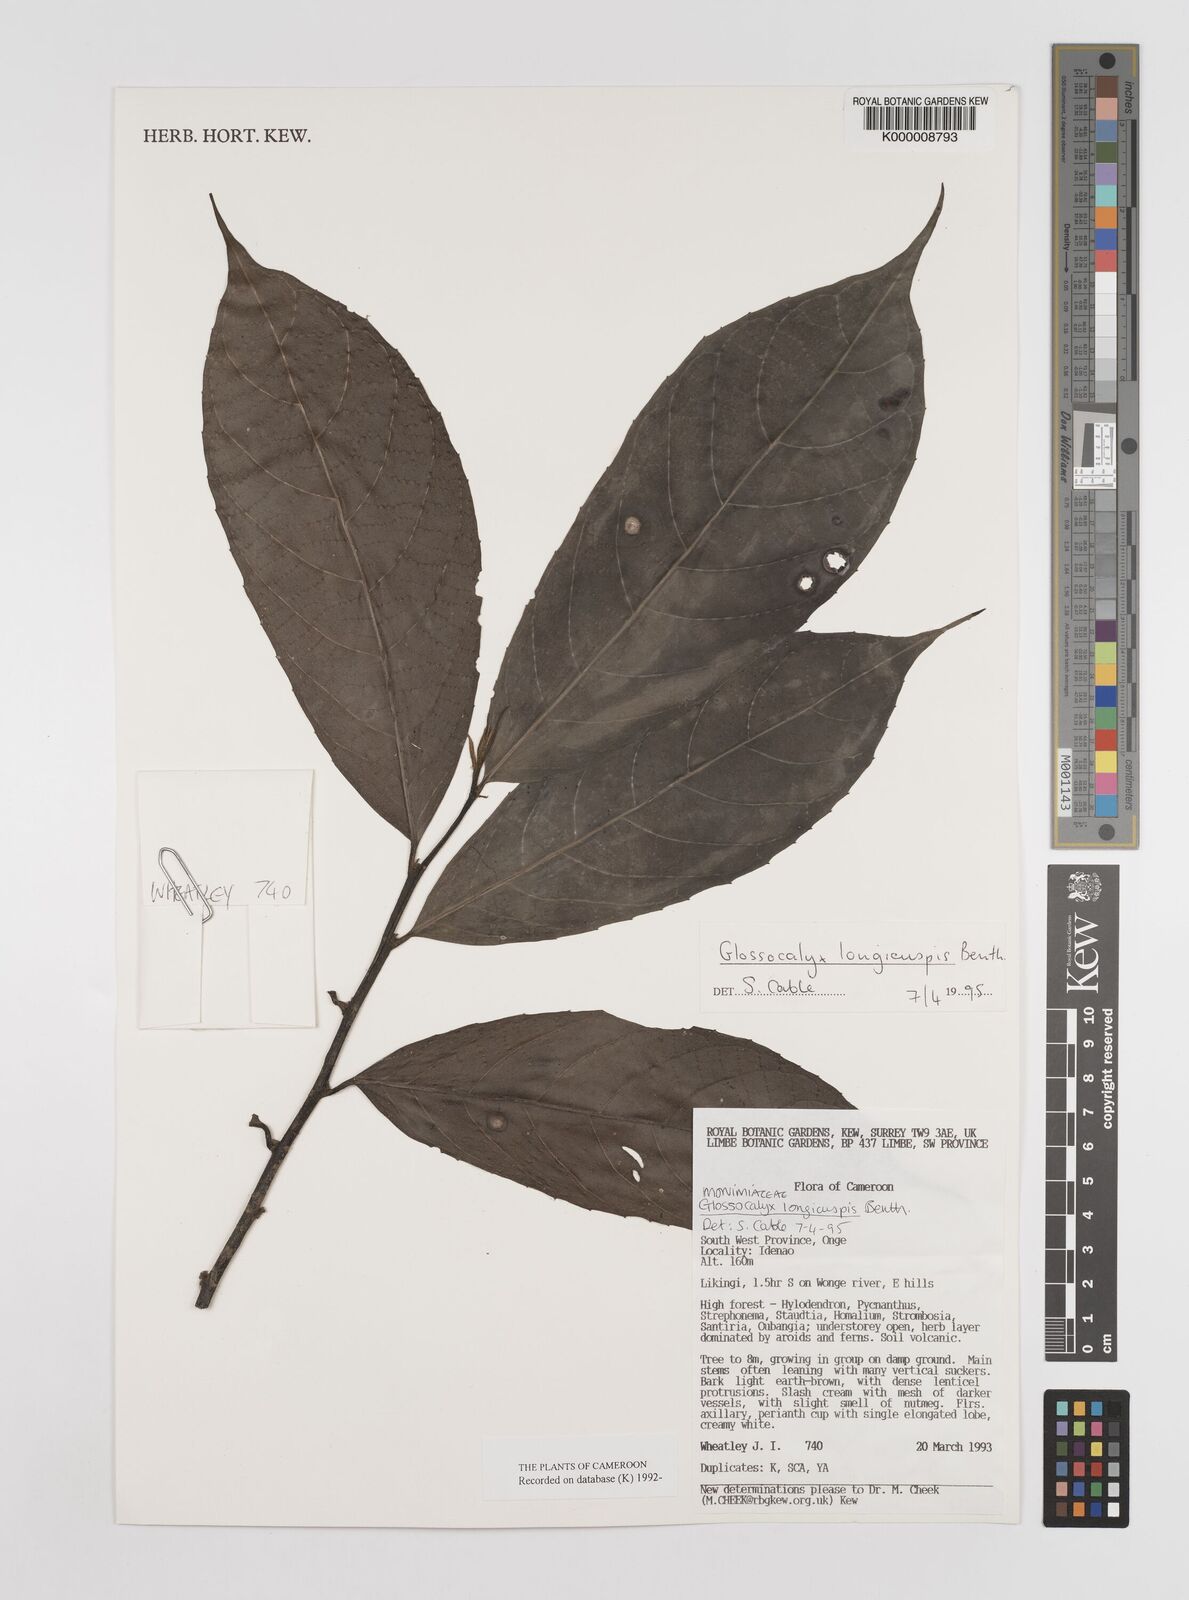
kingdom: Plantae
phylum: Tracheophyta
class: Magnoliopsida
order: Laurales
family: Siparunaceae
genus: Glossocalyx
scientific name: Glossocalyx longicuspis
